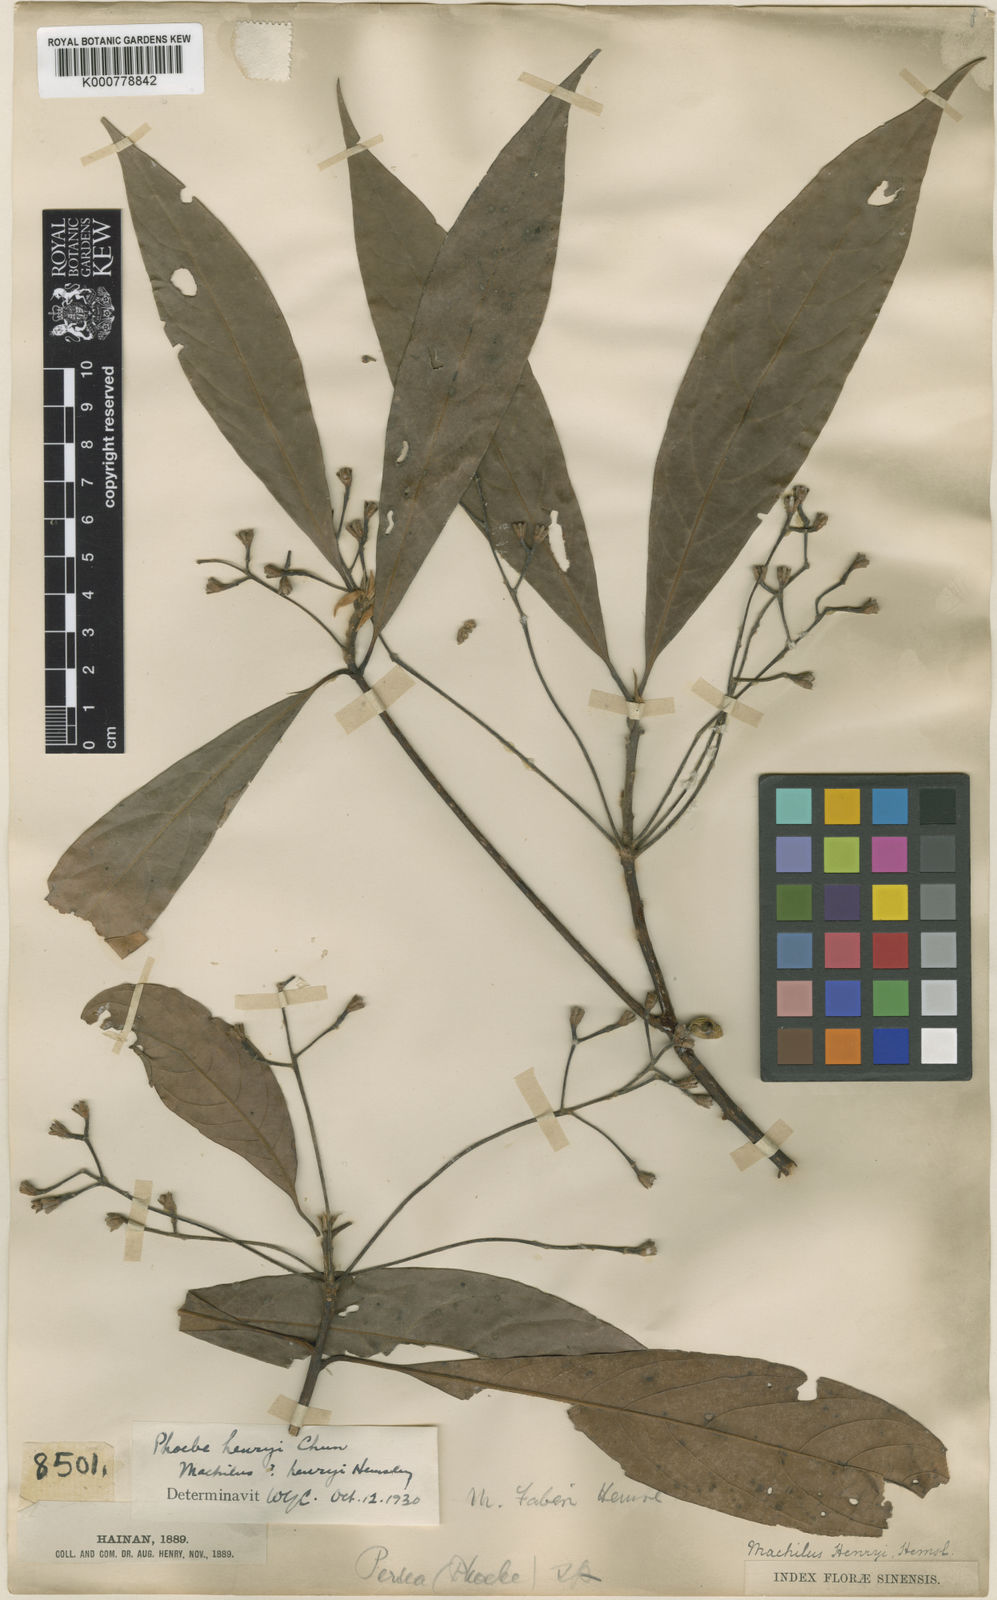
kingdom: Plantae
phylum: Tracheophyta
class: Magnoliopsida
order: Laurales
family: Lauraceae
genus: Phoebe
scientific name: Phoebe
